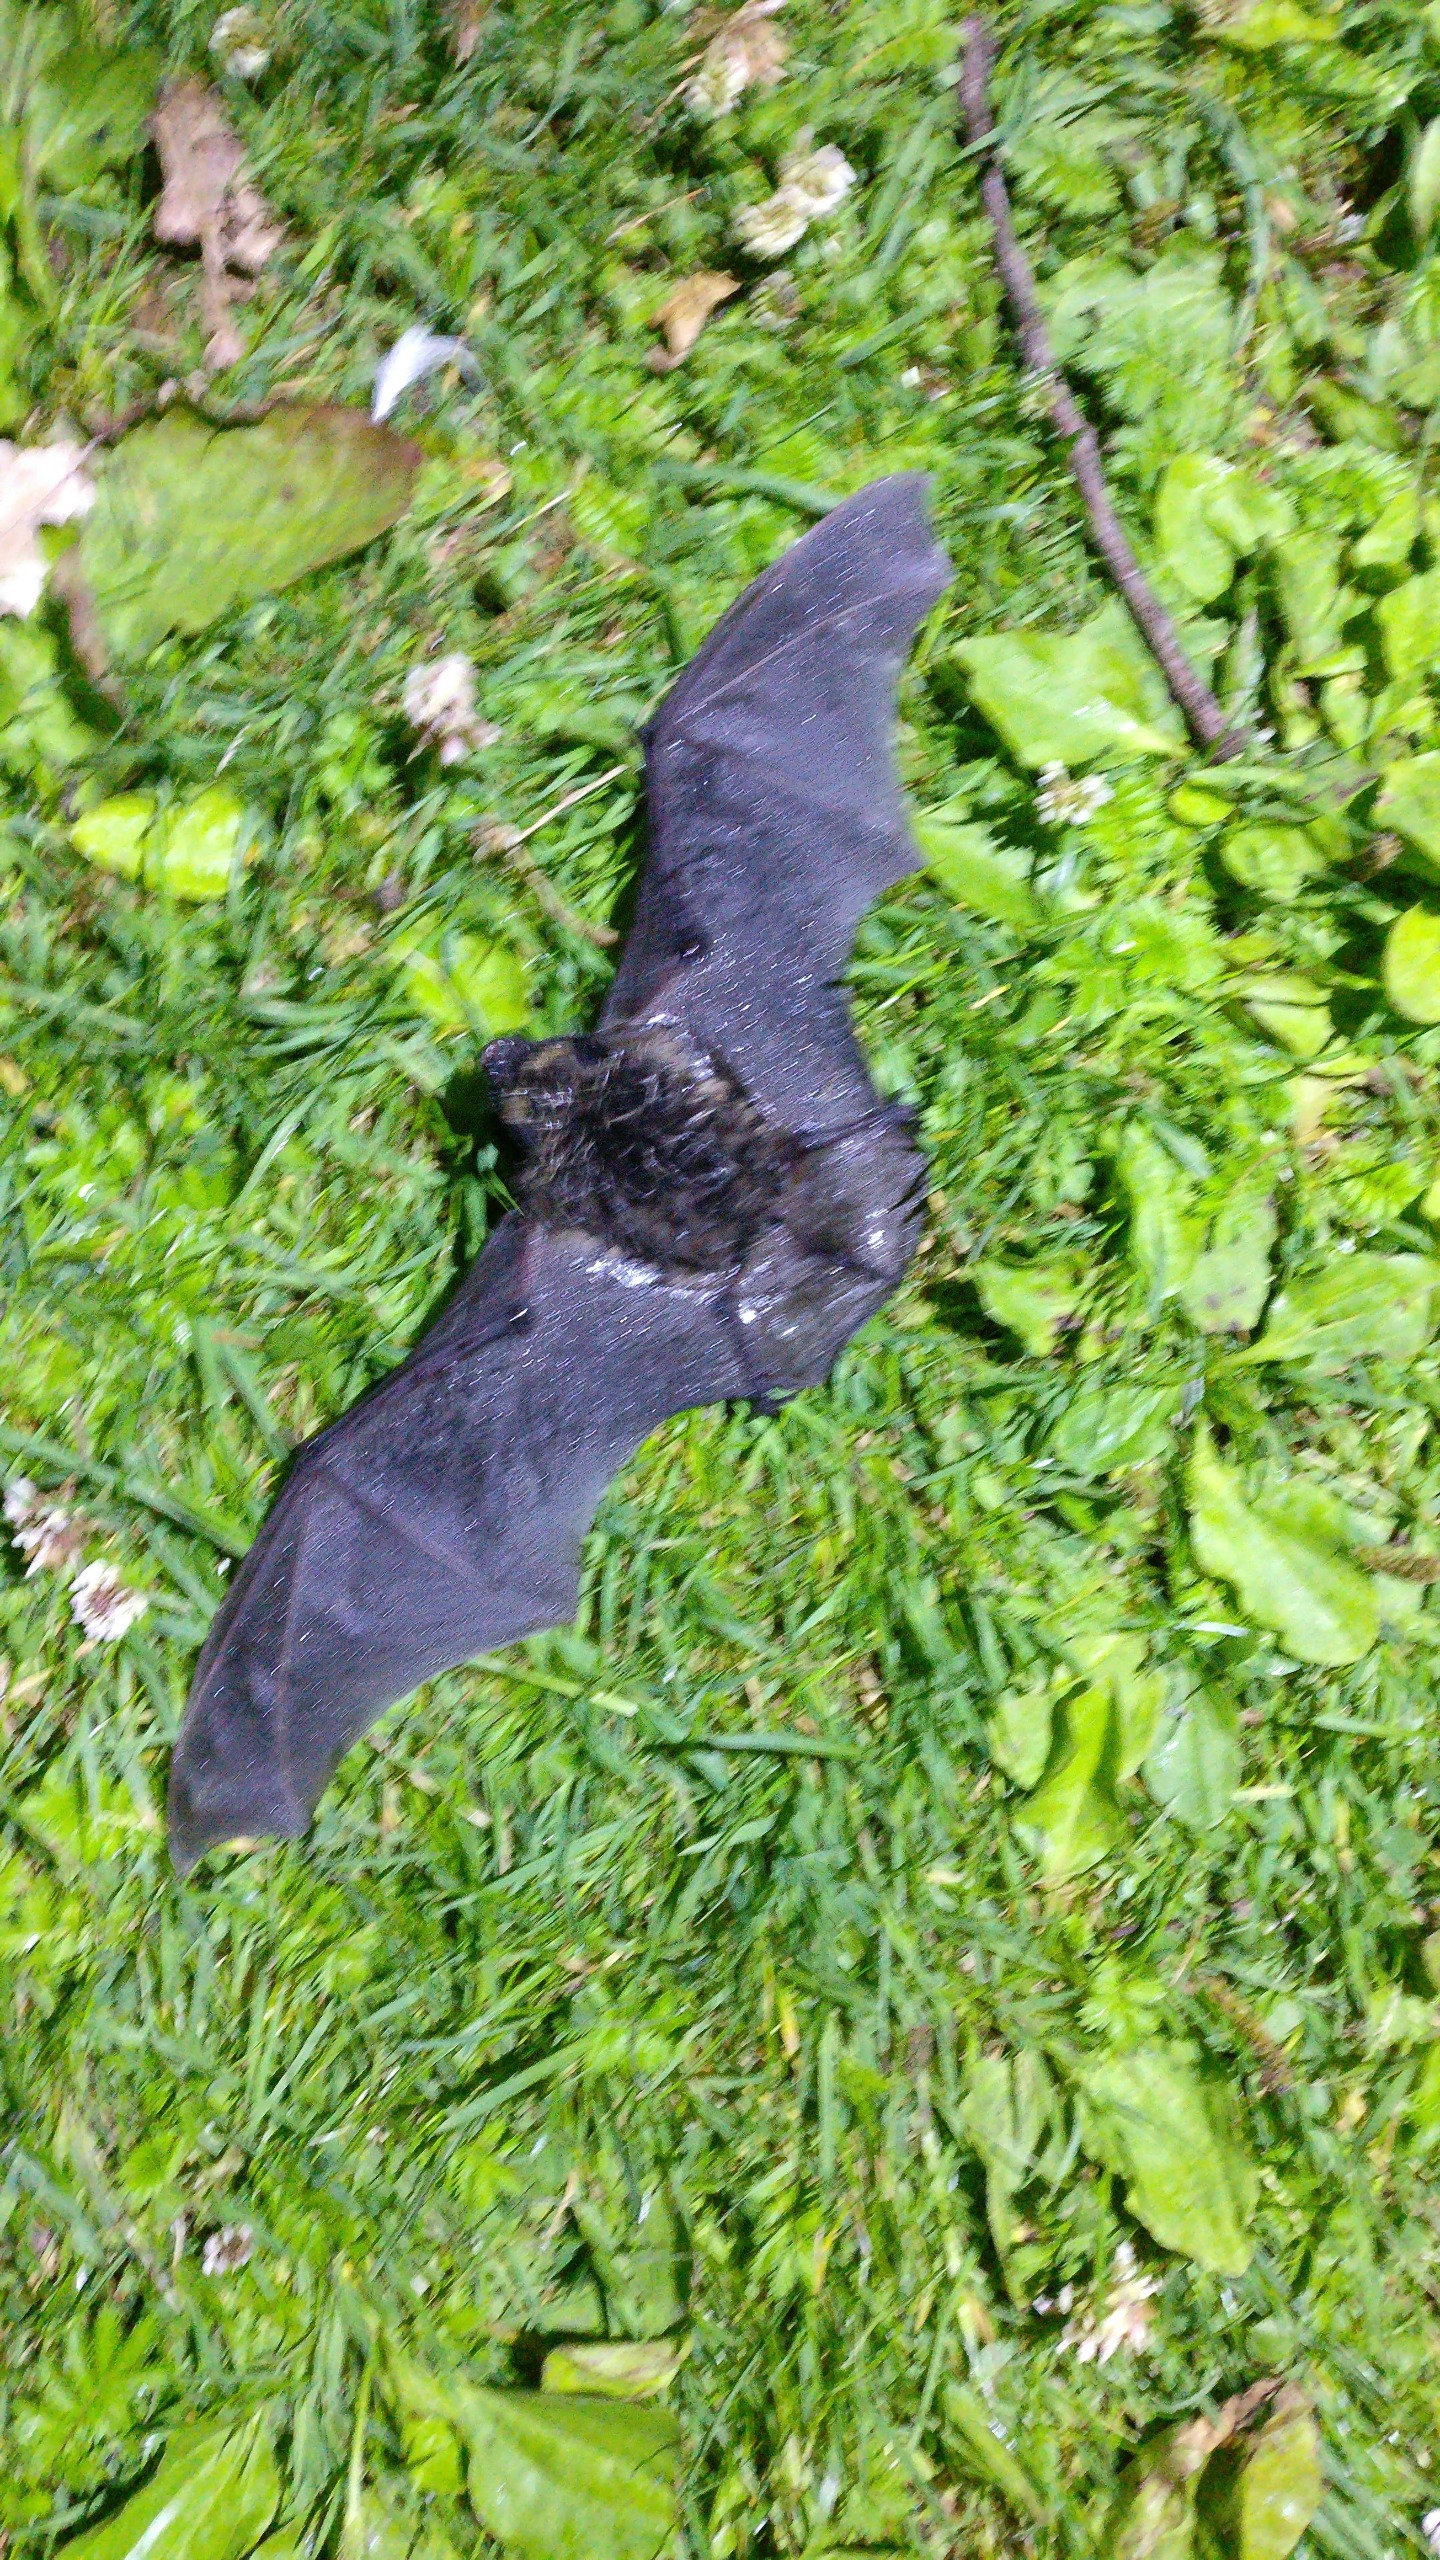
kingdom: Animalia
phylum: Chordata
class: Mammalia
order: Chiroptera
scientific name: Chiroptera
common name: Flagermus
